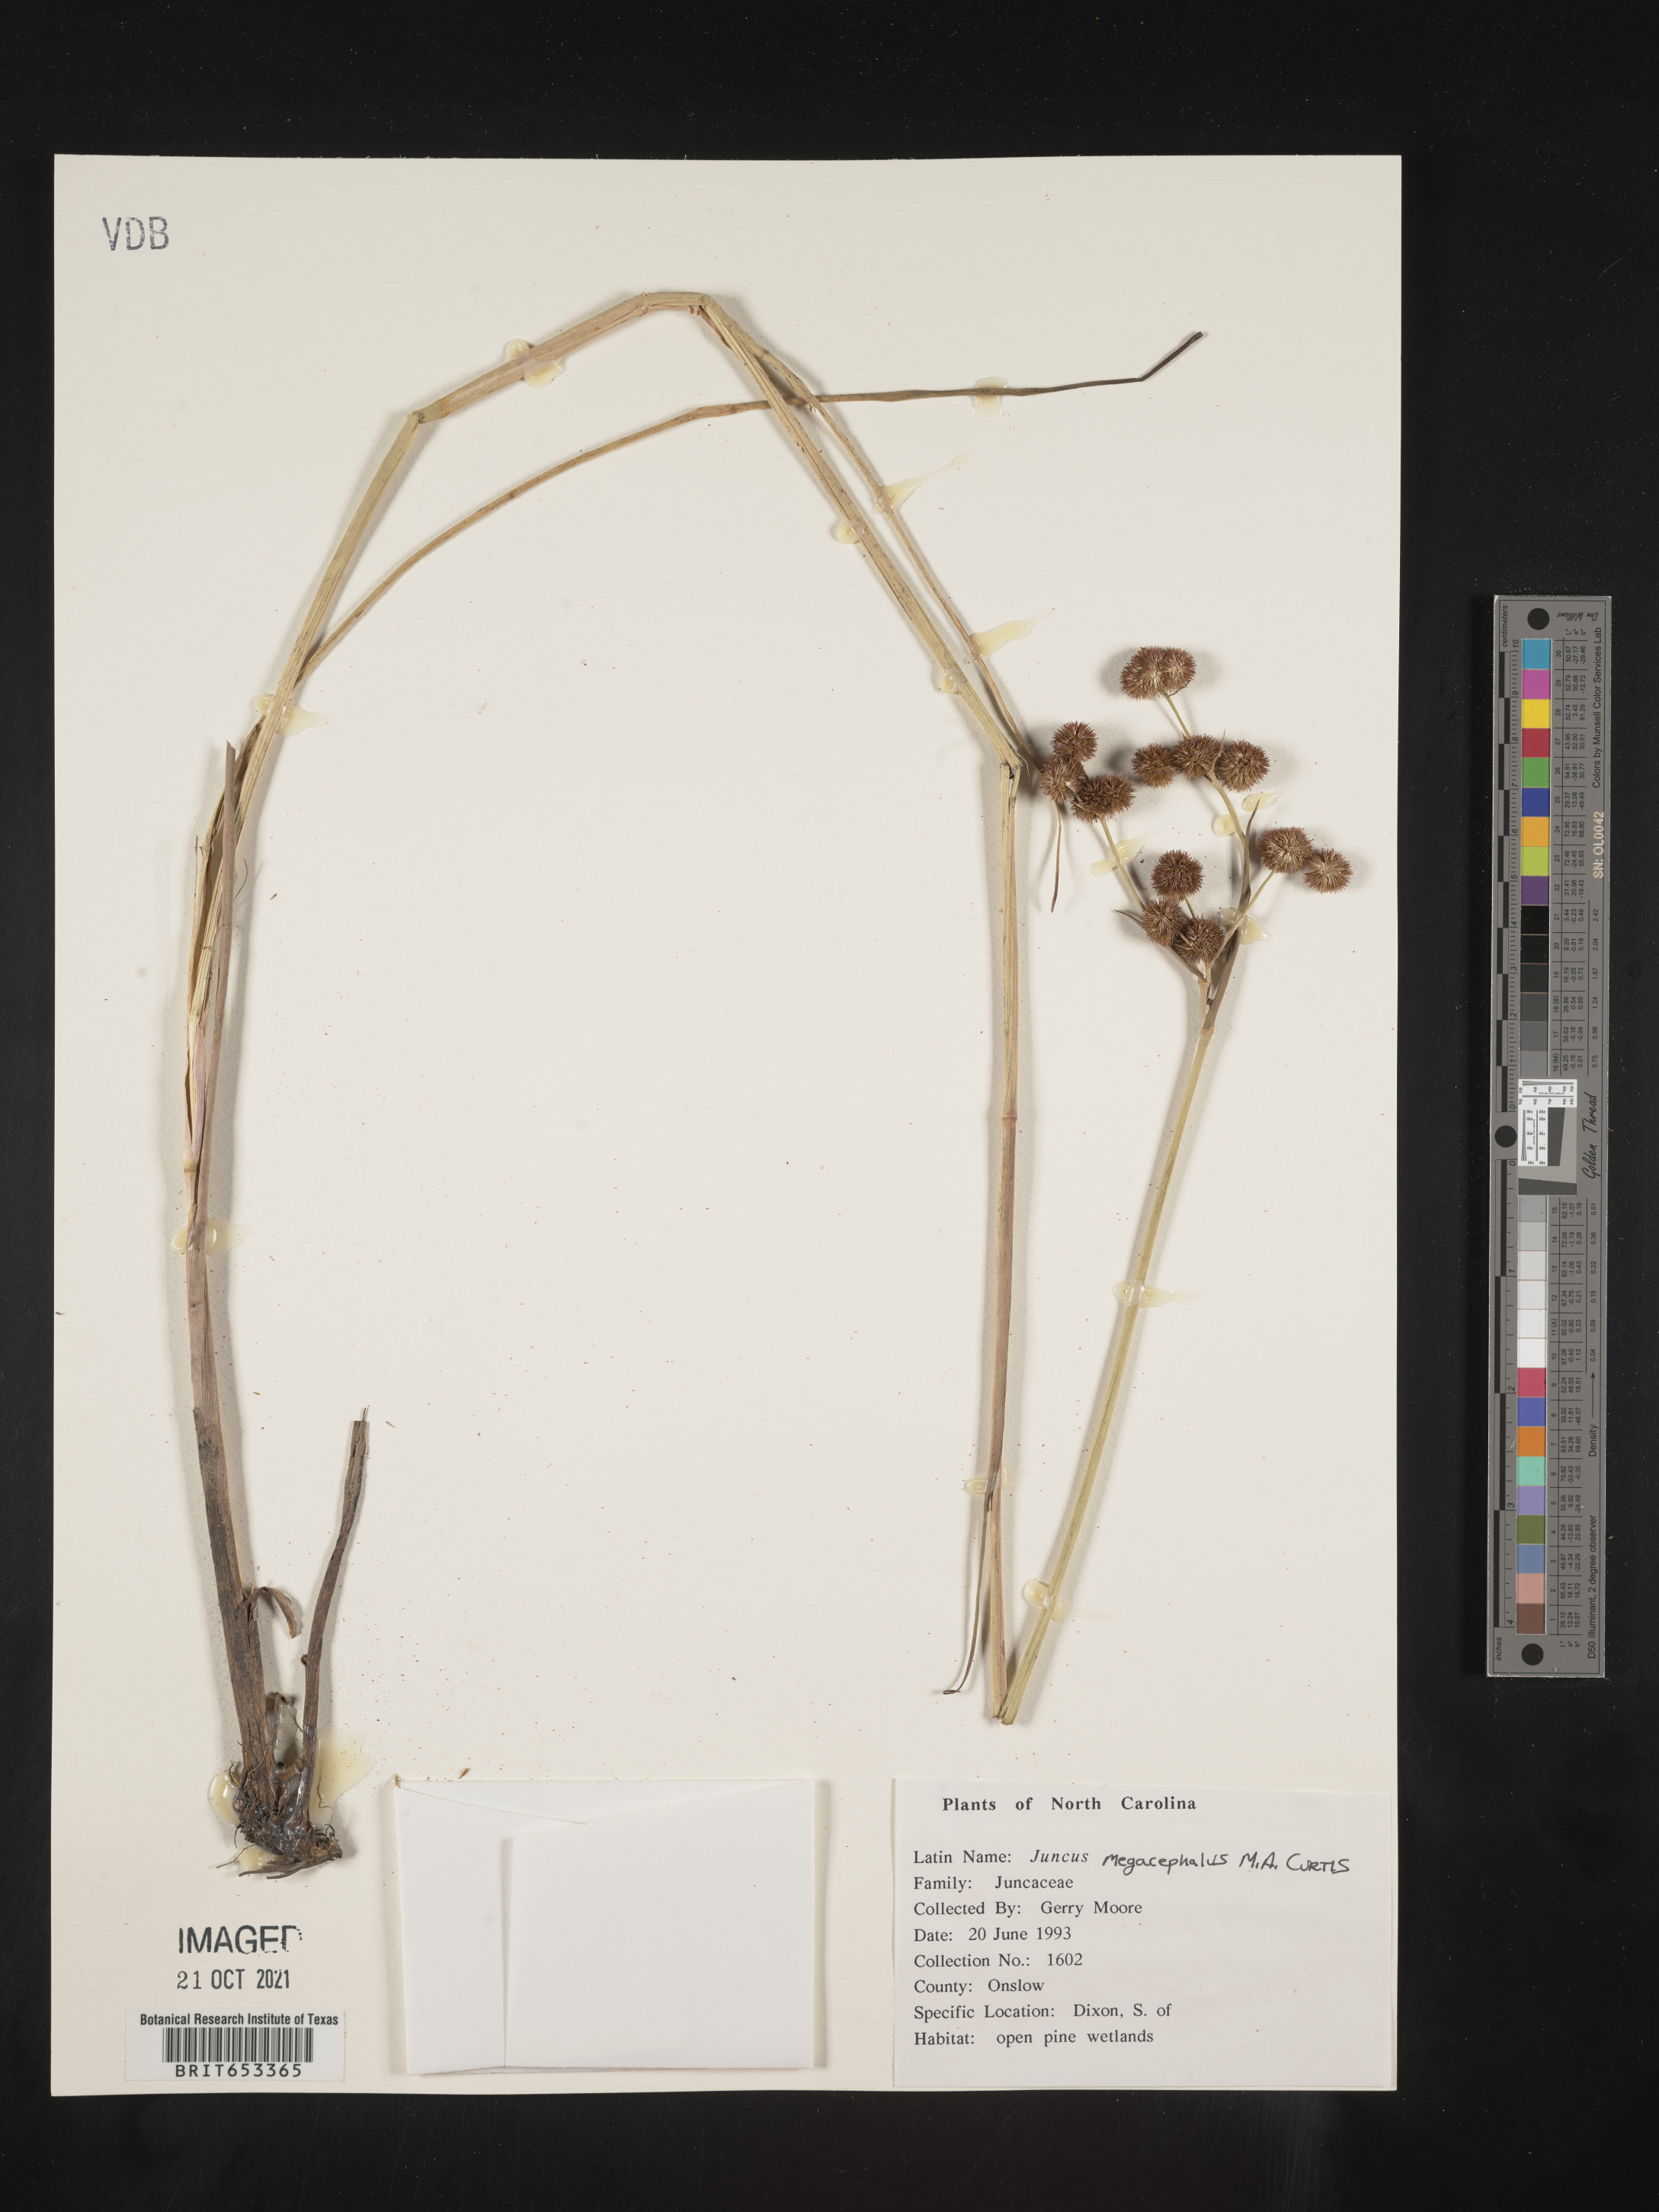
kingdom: Plantae
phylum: Tracheophyta
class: Liliopsida
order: Poales
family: Juncaceae
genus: Juncus
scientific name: Juncus megacephalus
